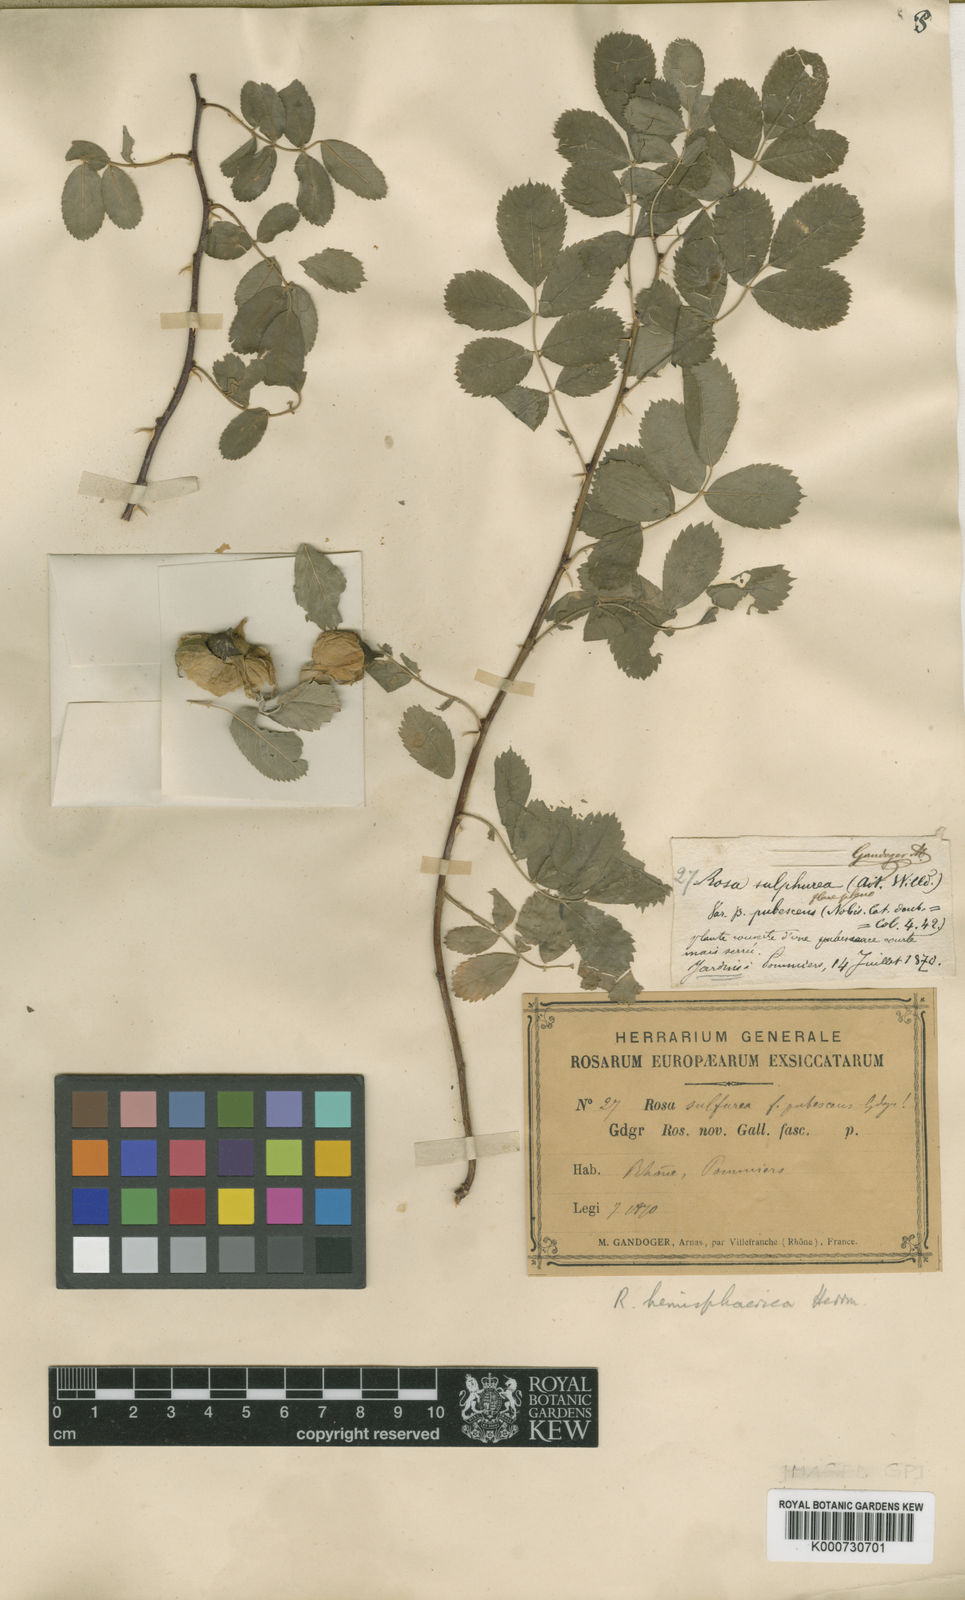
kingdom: Plantae
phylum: Tracheophyta
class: Magnoliopsida
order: Rosales
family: Rosaceae
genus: Rosa
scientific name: Rosa hemisphaerica
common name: Sulphur rose
